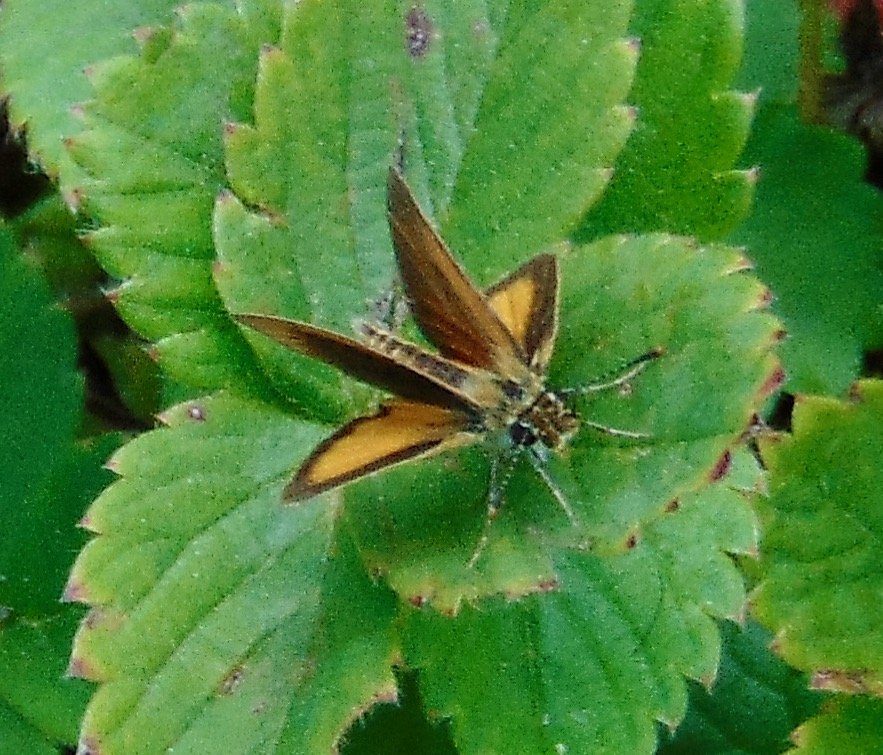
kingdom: Animalia
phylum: Arthropoda
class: Insecta
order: Lepidoptera
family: Hesperiidae
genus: Ancyloxypha
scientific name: Ancyloxypha numitor
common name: Least Skipper
